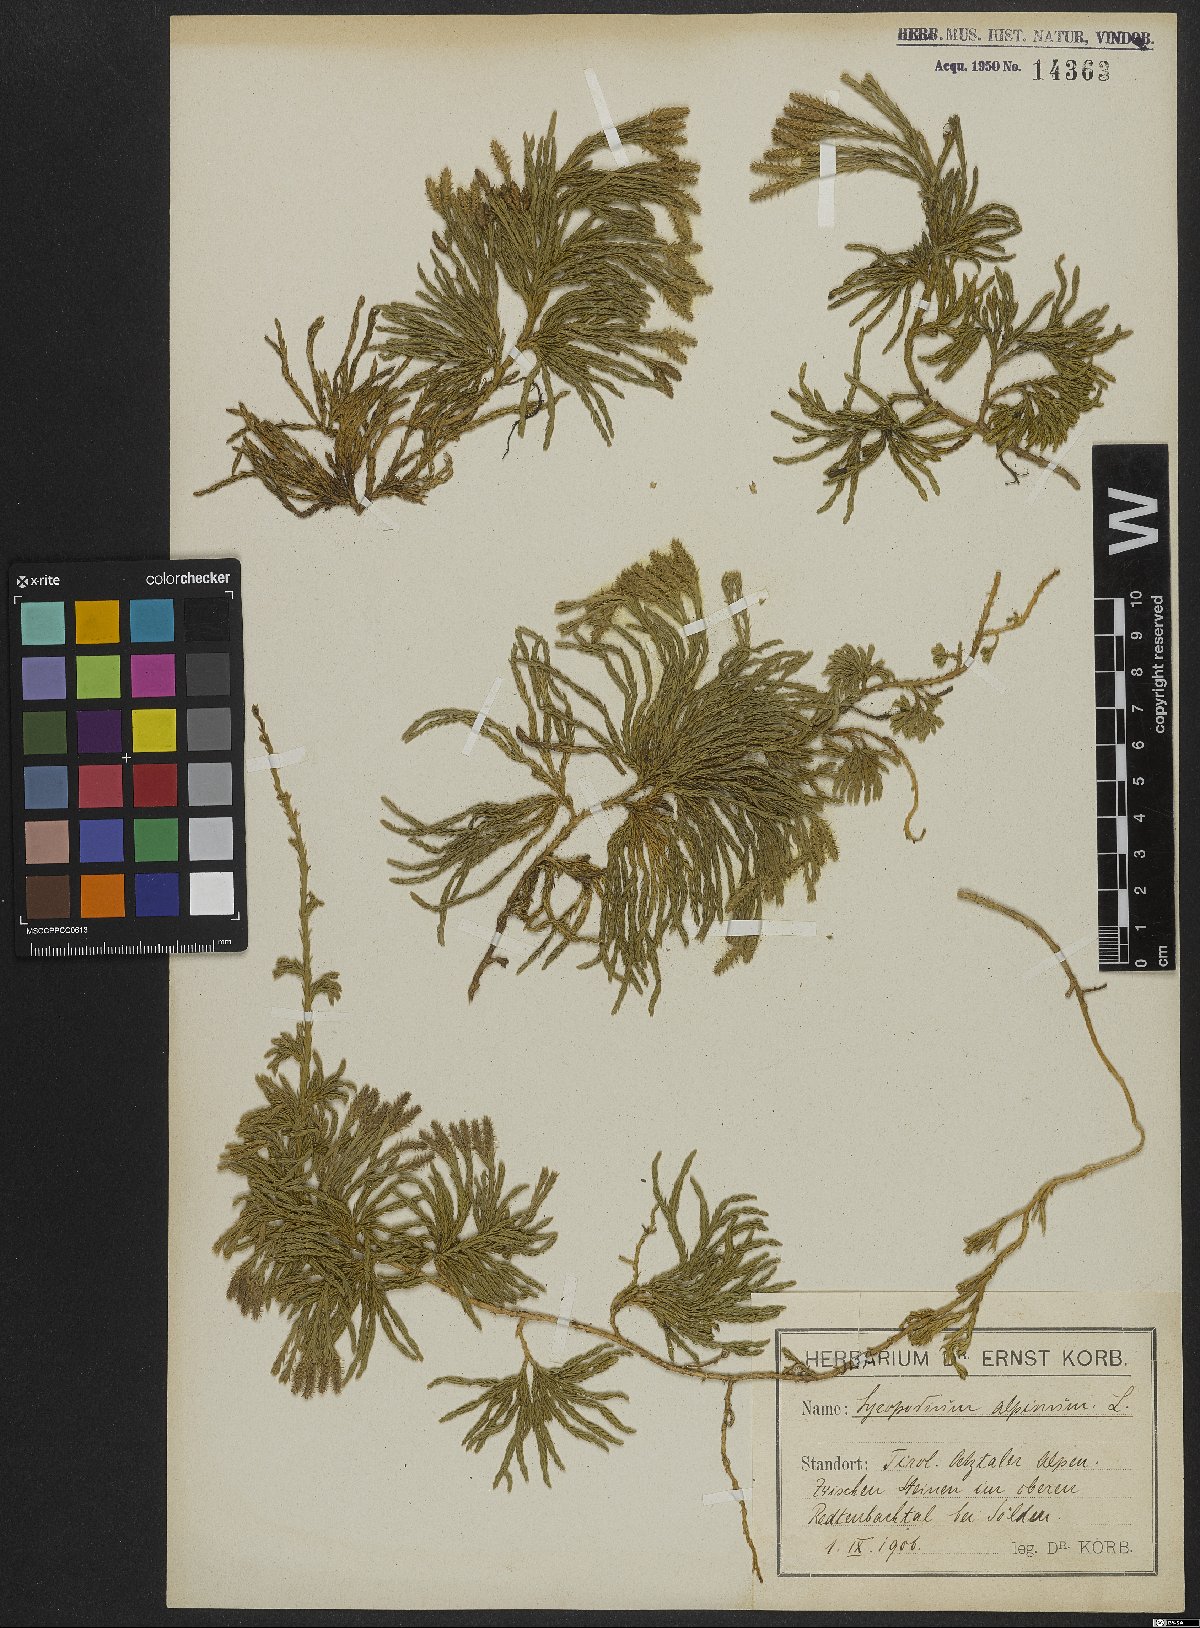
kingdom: Plantae
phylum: Tracheophyta
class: Lycopodiopsida
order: Lycopodiales
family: Lycopodiaceae
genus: Diphasiastrum
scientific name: Diphasiastrum alpinum
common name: Alpine clubmoss
